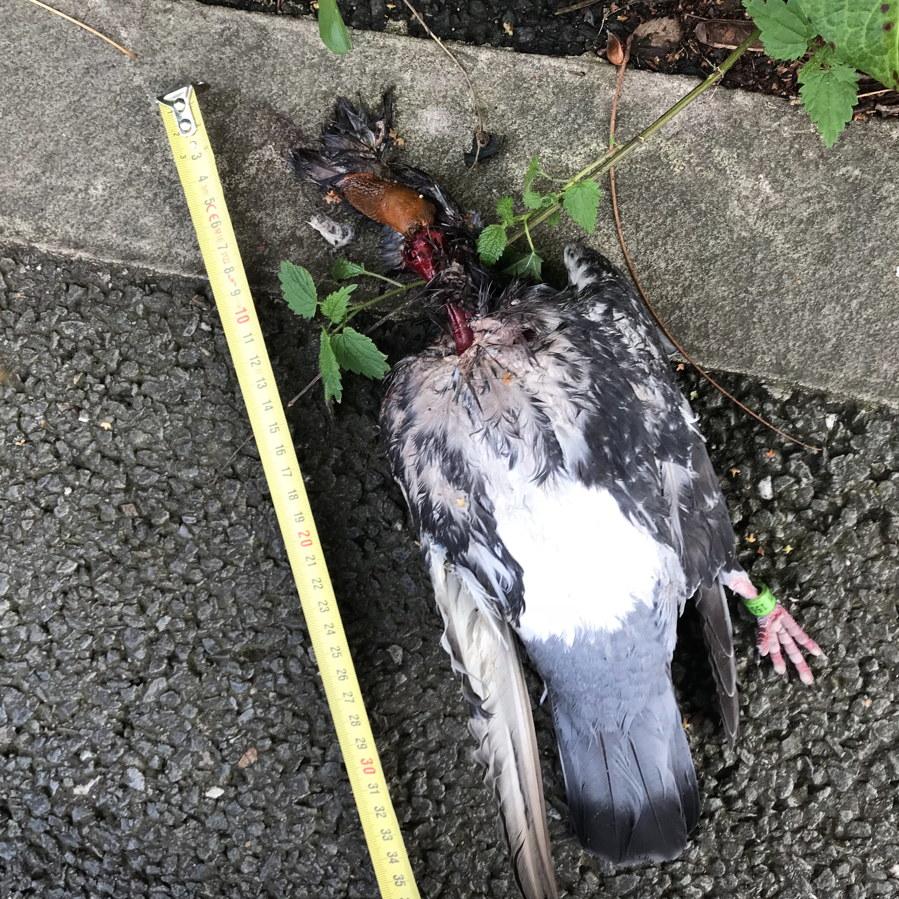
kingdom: Animalia
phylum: Chordata
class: Aves
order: Columbiformes
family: Columbidae
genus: Columba
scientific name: Columba livia
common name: Rock pigeon
